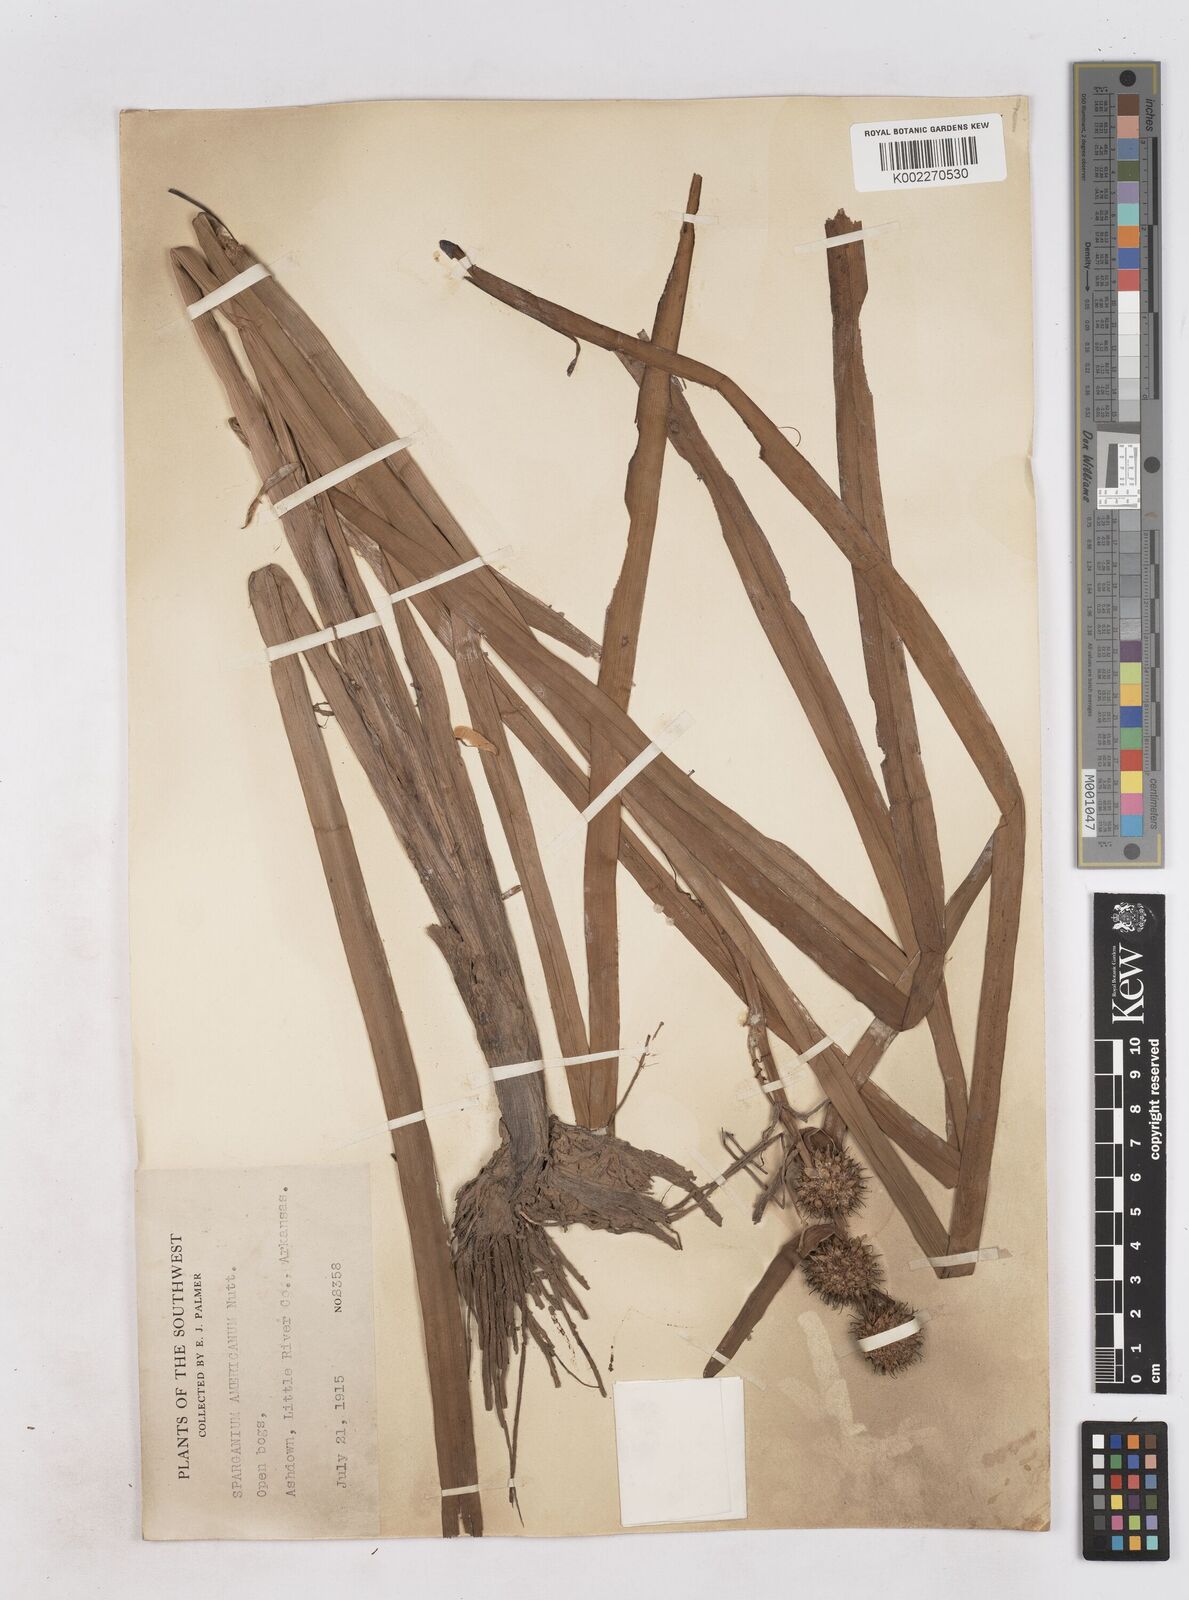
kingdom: Plantae
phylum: Tracheophyta
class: Liliopsida
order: Poales
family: Typhaceae
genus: Sparganium
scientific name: Sparganium americanum
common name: American burreed
